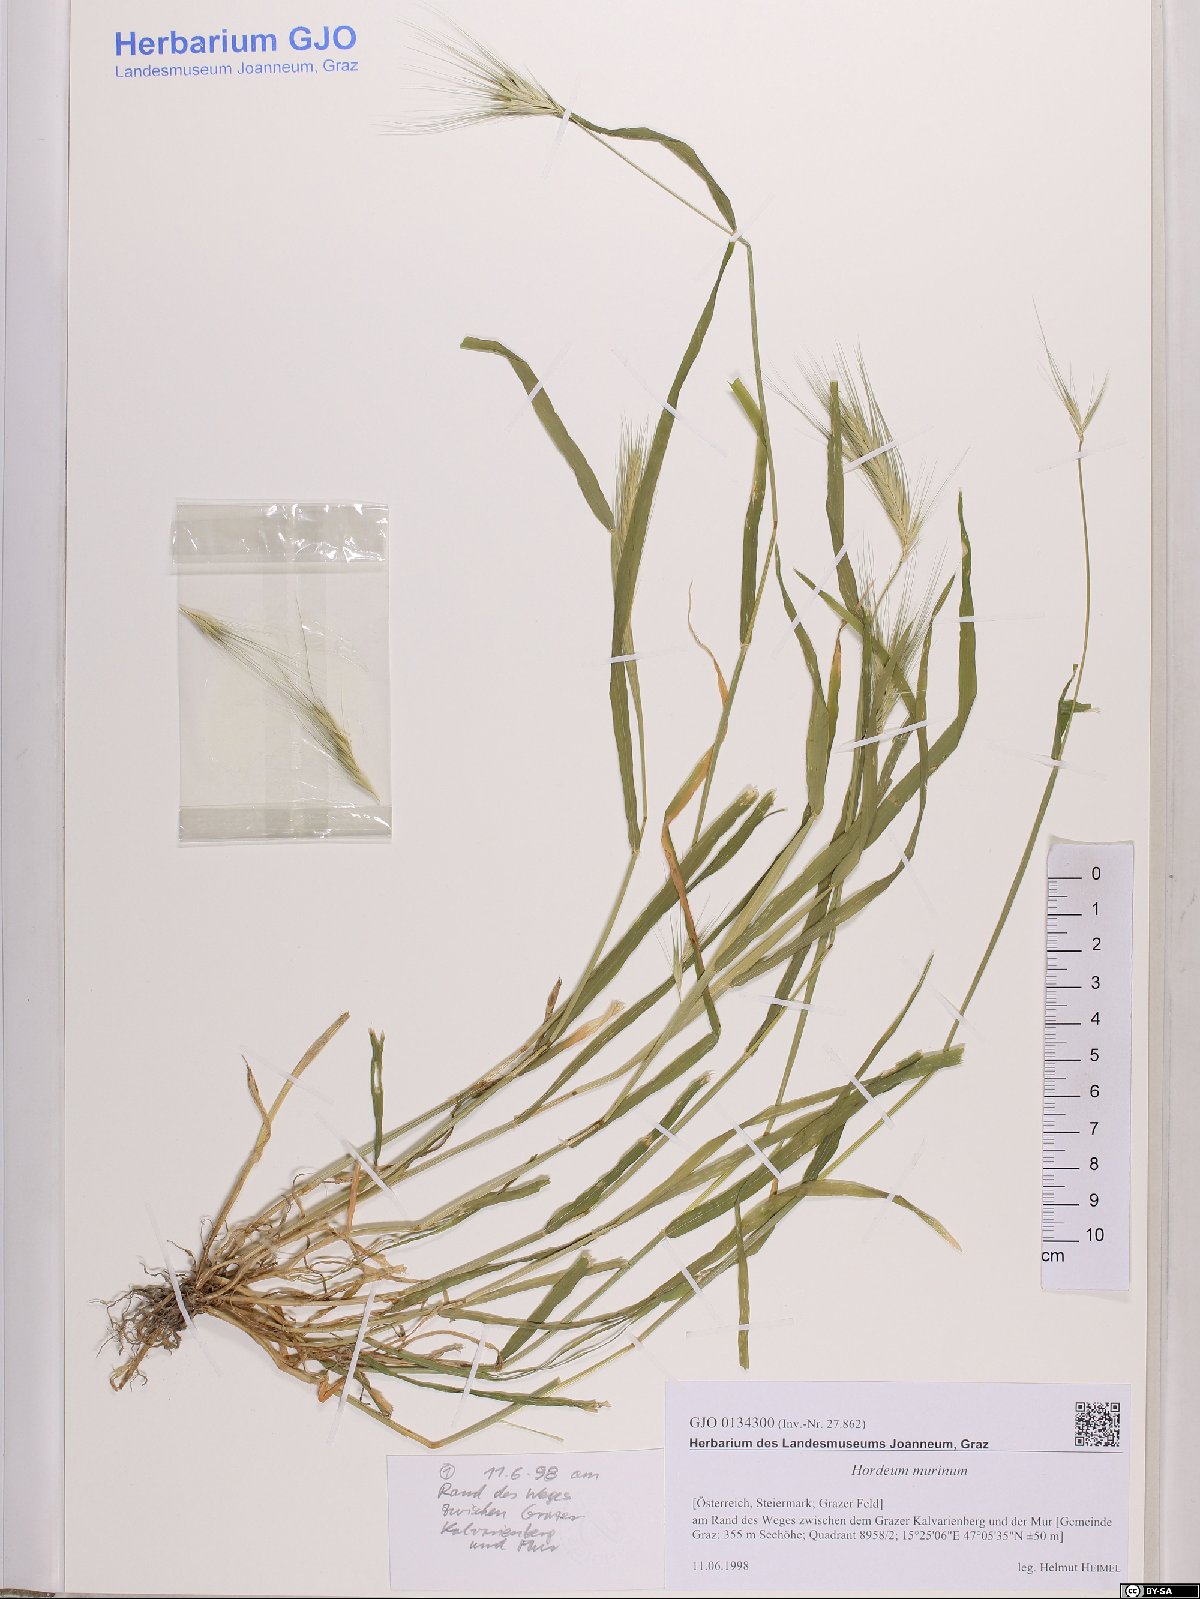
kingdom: Plantae
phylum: Tracheophyta
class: Liliopsida
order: Poales
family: Poaceae
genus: Hordeum
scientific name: Hordeum murinum
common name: Wall barley
